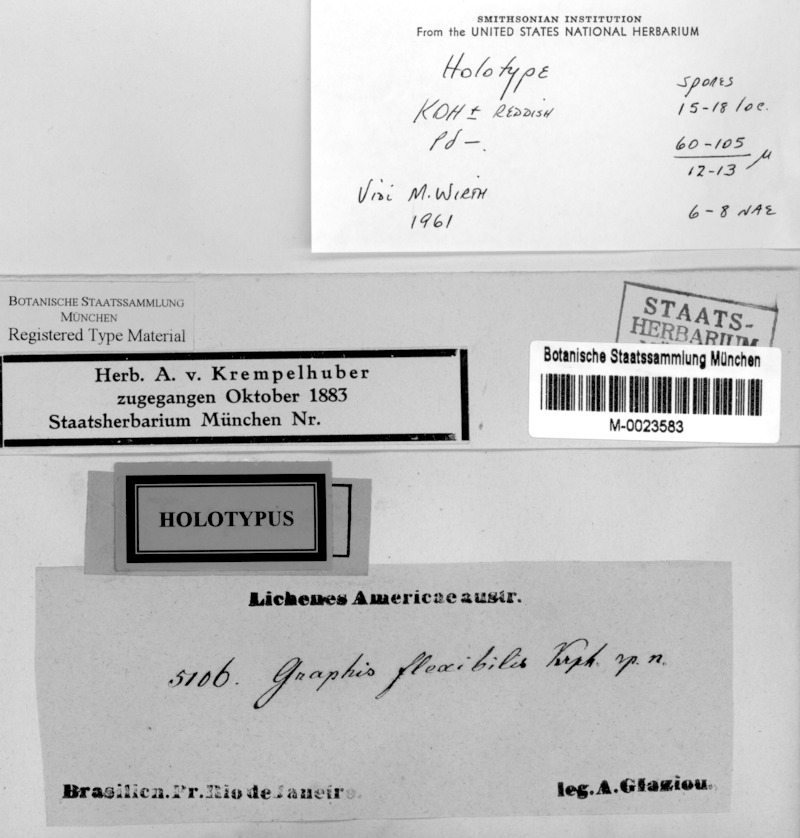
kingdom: Fungi
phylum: Ascomycota
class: Lecanoromycetes
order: Ostropales
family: Graphidaceae
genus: Graphis
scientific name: Graphis flexibilis
